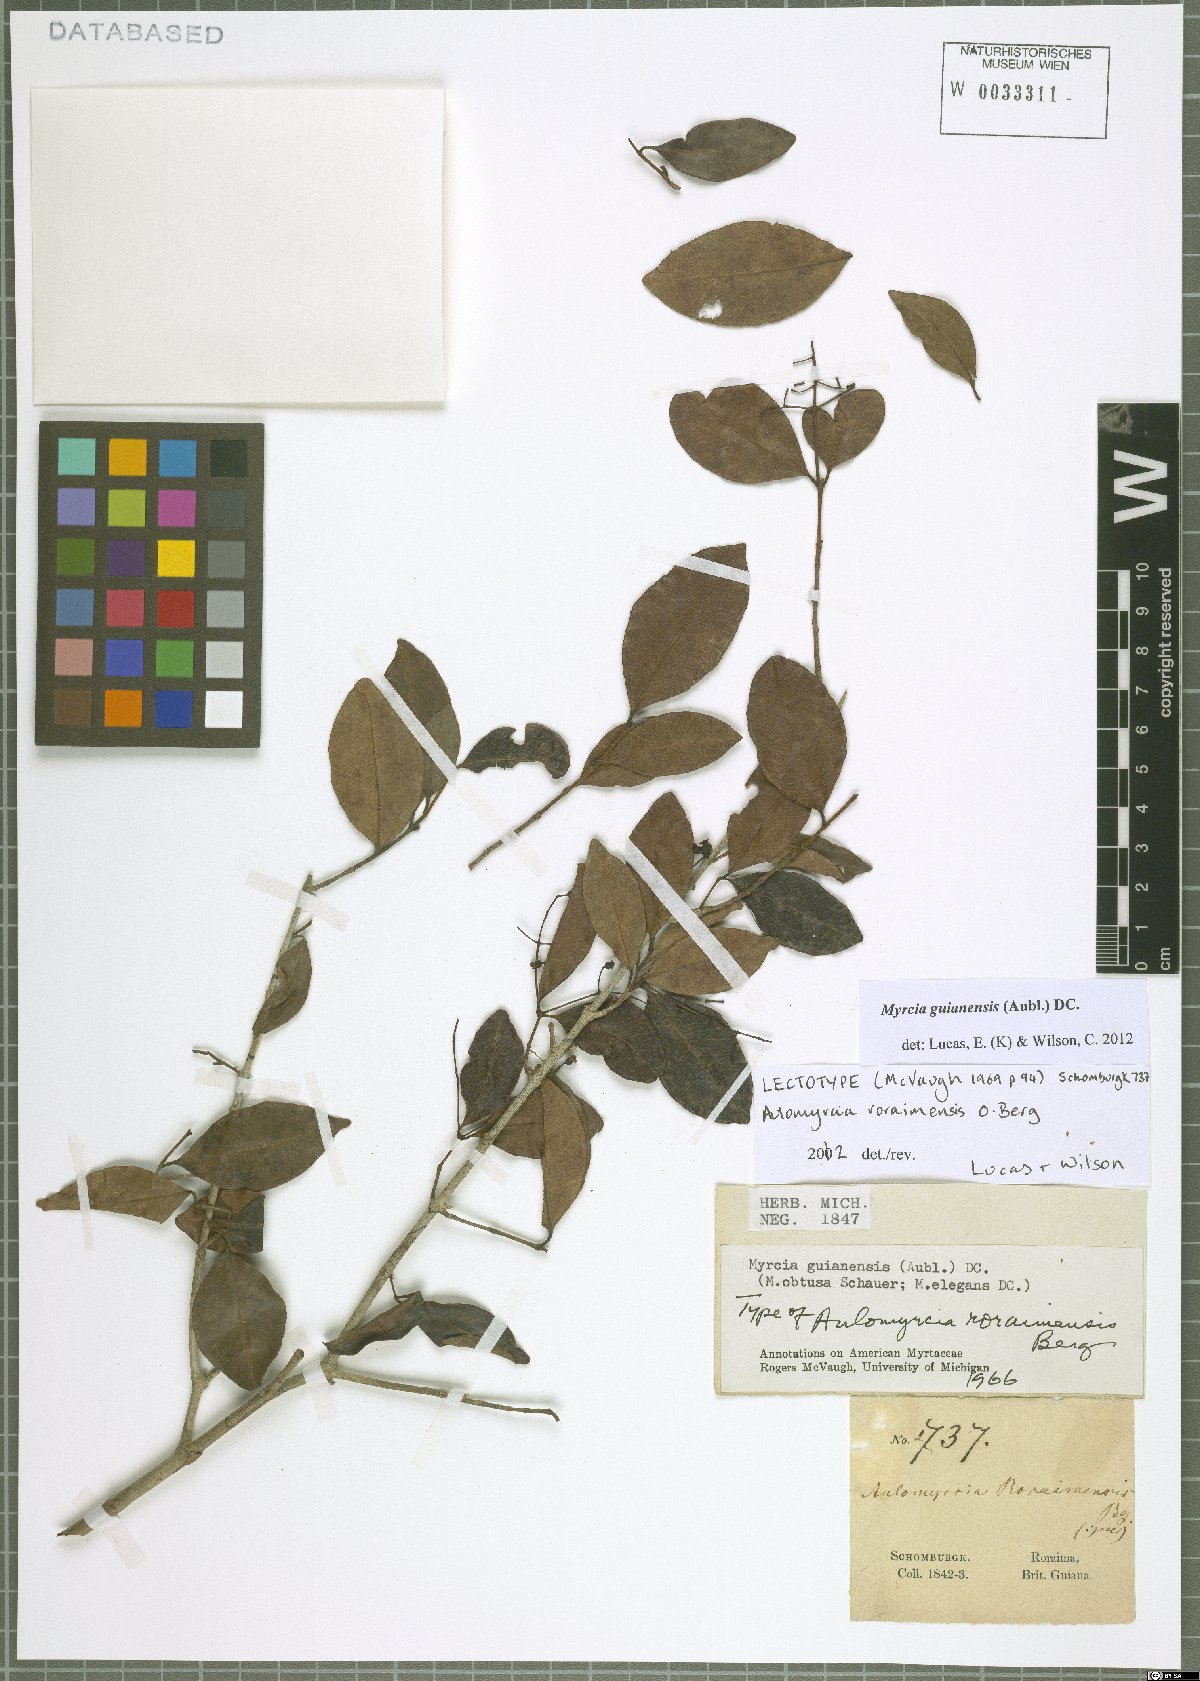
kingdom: Plantae
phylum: Tracheophyta
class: Magnoliopsida
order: Myrtales
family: Myrtaceae
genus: Myrcia
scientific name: Myrcia guianensis
